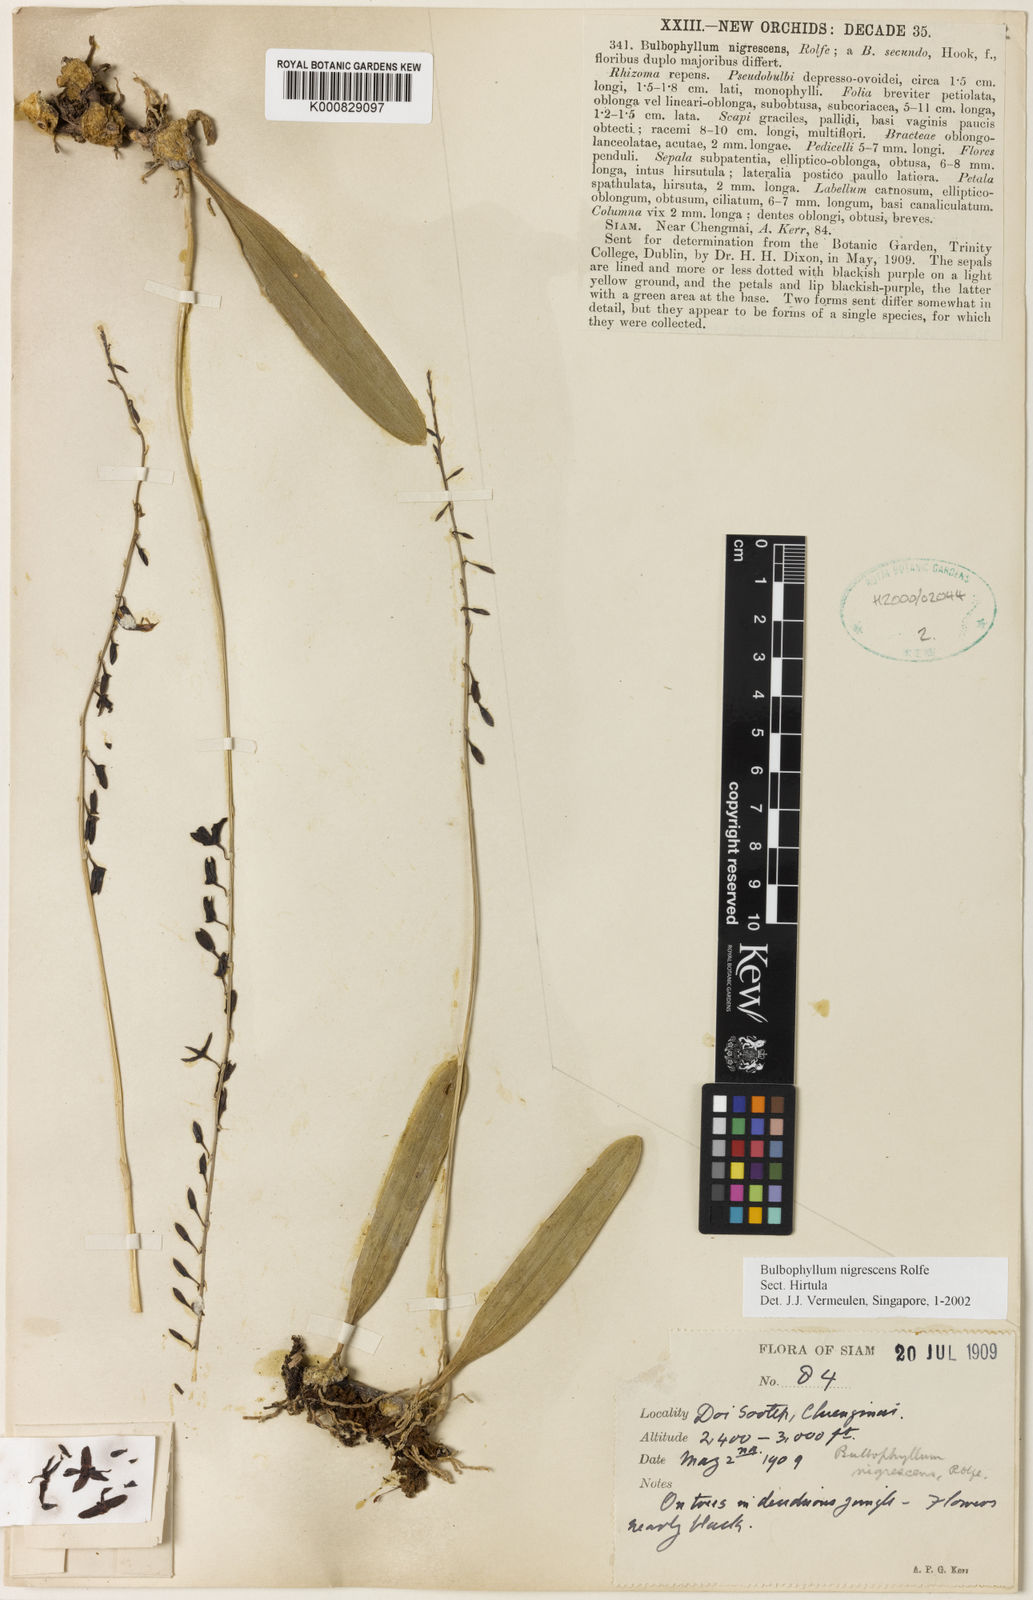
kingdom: Plantae
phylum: Tracheophyta
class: Liliopsida
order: Asparagales
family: Orchidaceae
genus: Bulbophyllum
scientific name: Bulbophyllum nigrescens
